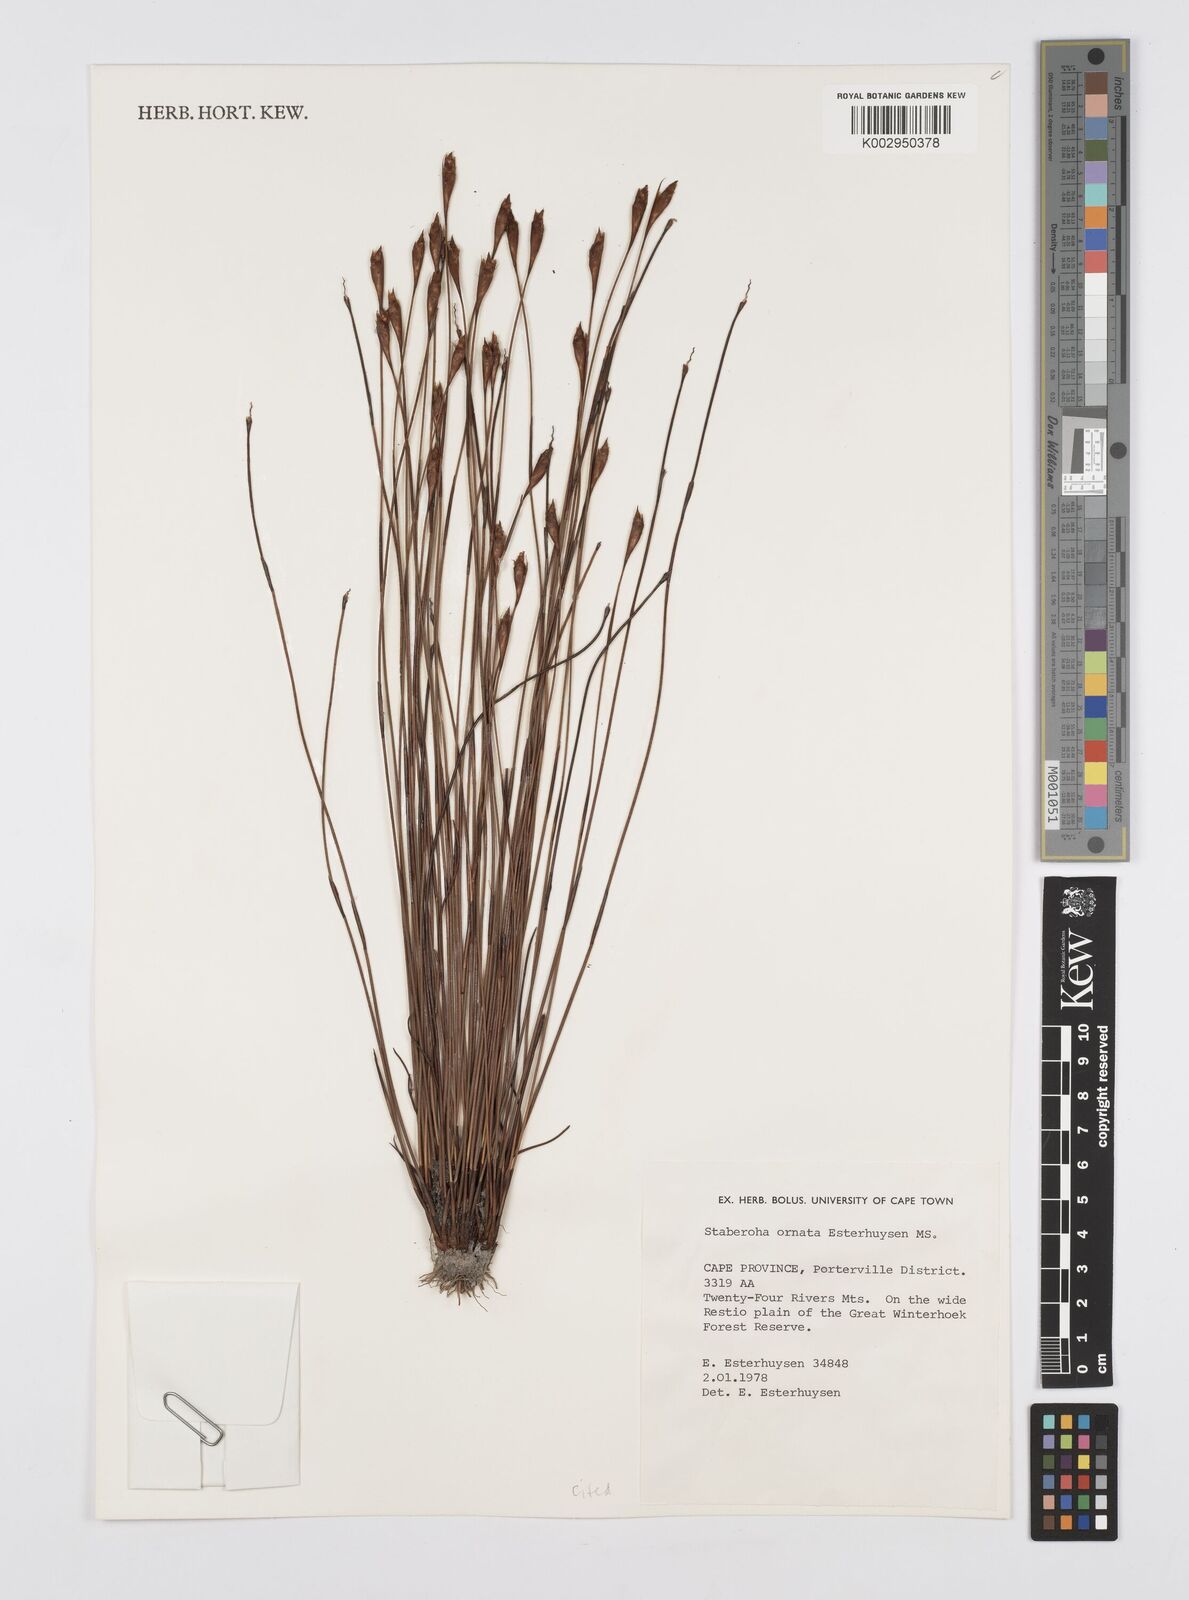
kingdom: Plantae
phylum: Tracheophyta
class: Liliopsida
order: Poales
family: Restionaceae
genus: Staberoha
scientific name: Staberoha ornata
